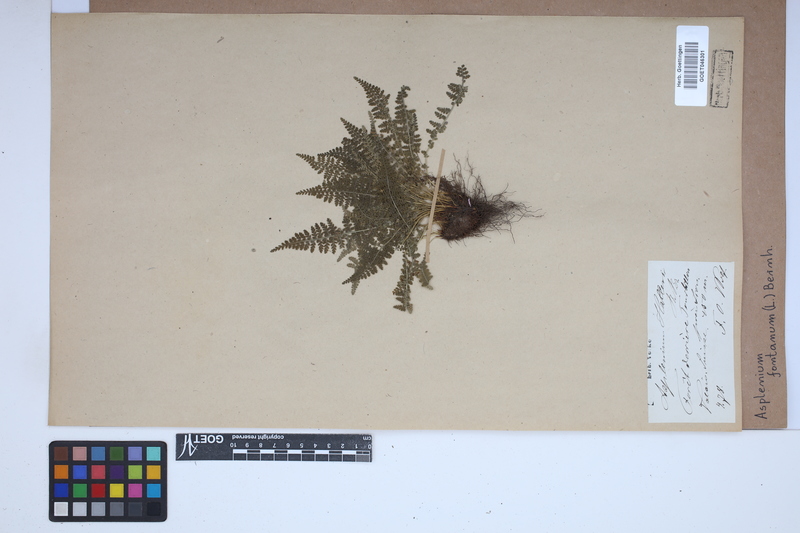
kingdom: Plantae
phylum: Tracheophyta
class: Polypodiopsida
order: Polypodiales
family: Aspleniaceae
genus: Asplenium
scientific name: Asplenium fontanum
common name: Fountain spleenwort
